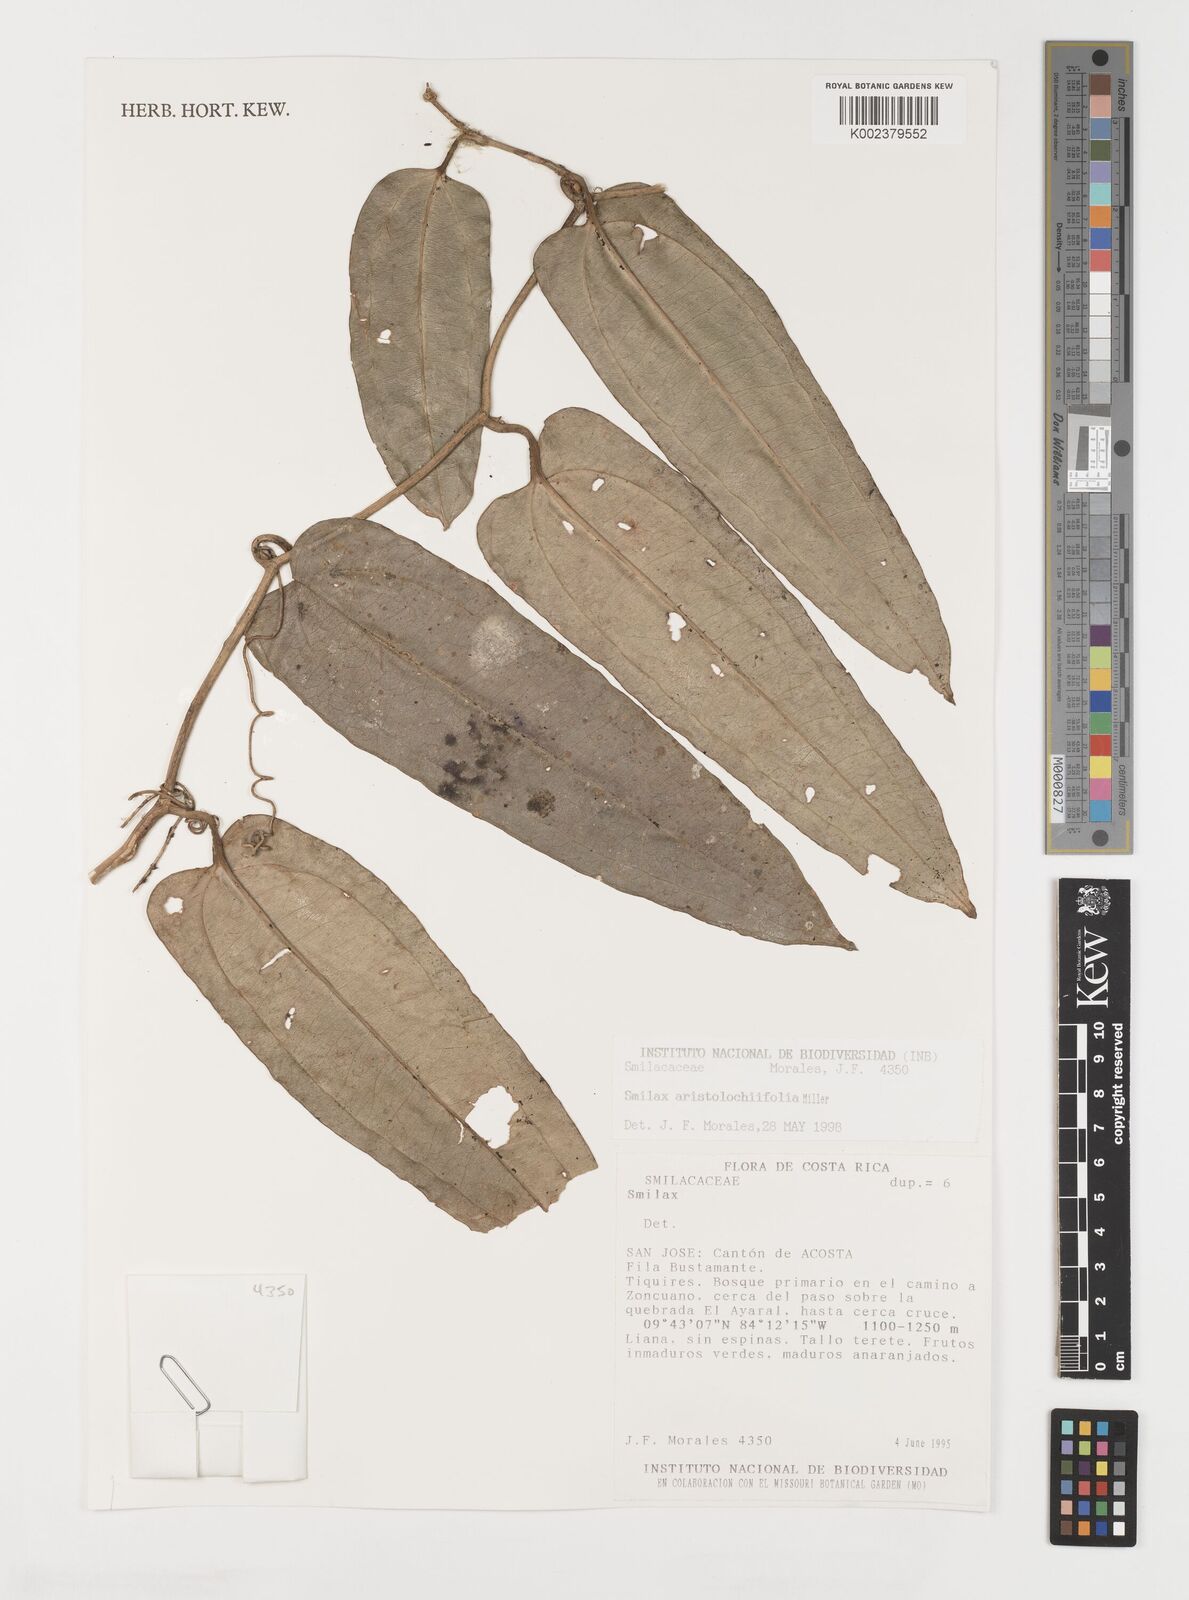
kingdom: Plantae
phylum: Tracheophyta
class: Liliopsida
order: Liliales
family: Smilacaceae
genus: Smilax
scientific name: Smilax aristolochiifolia
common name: Sarsaparilla
